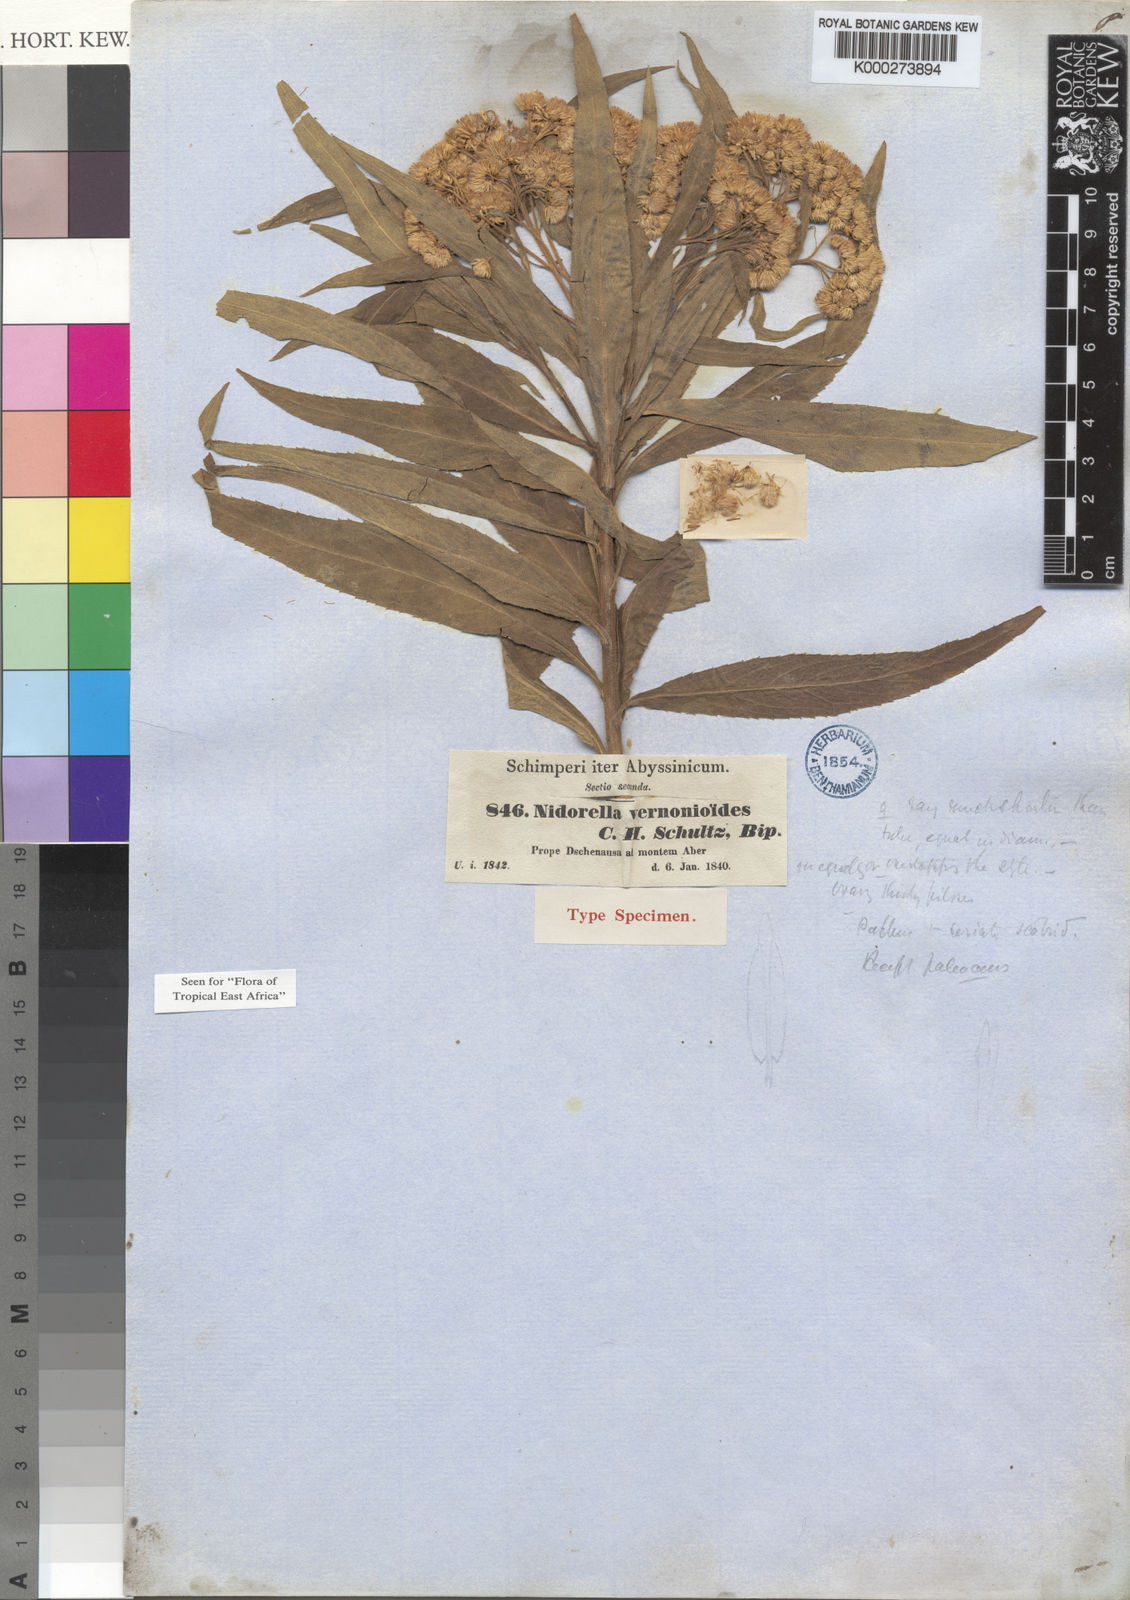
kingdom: Plantae
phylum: Tracheophyta
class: Magnoliopsida
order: Asterales
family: Asteraceae
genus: Nidorella
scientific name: Nidorella vernonioides
